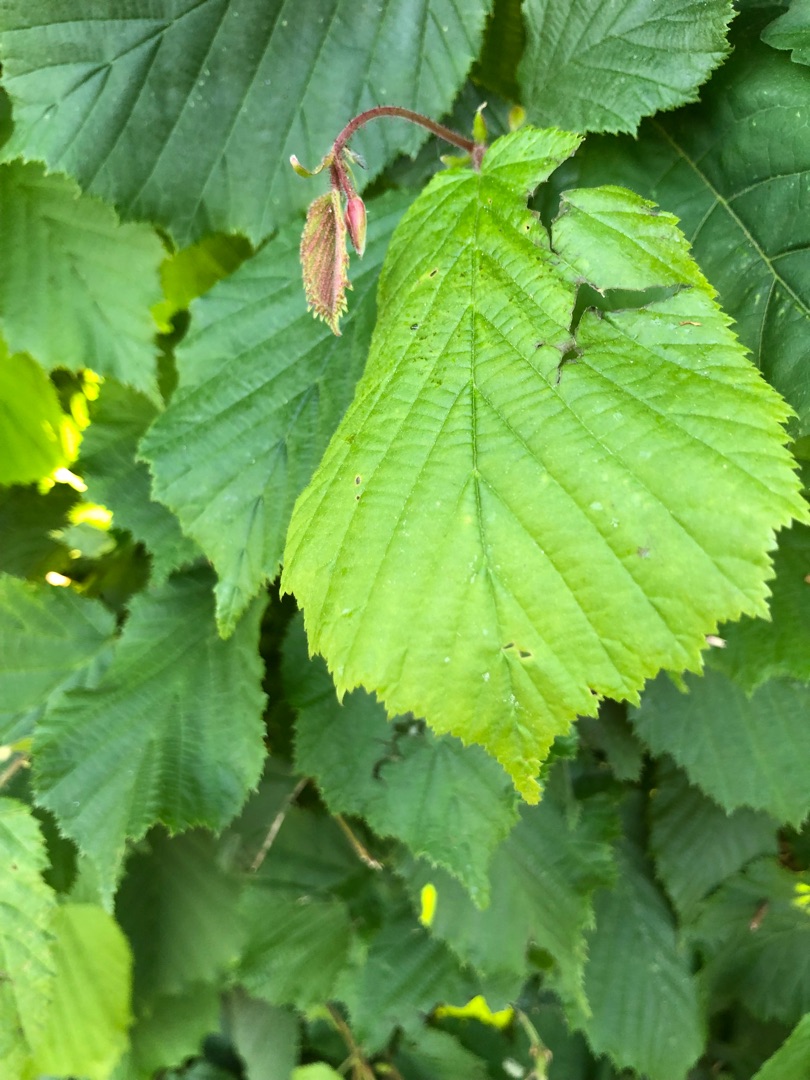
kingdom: Plantae
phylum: Tracheophyta
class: Magnoliopsida
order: Fagales
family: Betulaceae
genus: Corylus
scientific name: Corylus avellana
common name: Hassel
